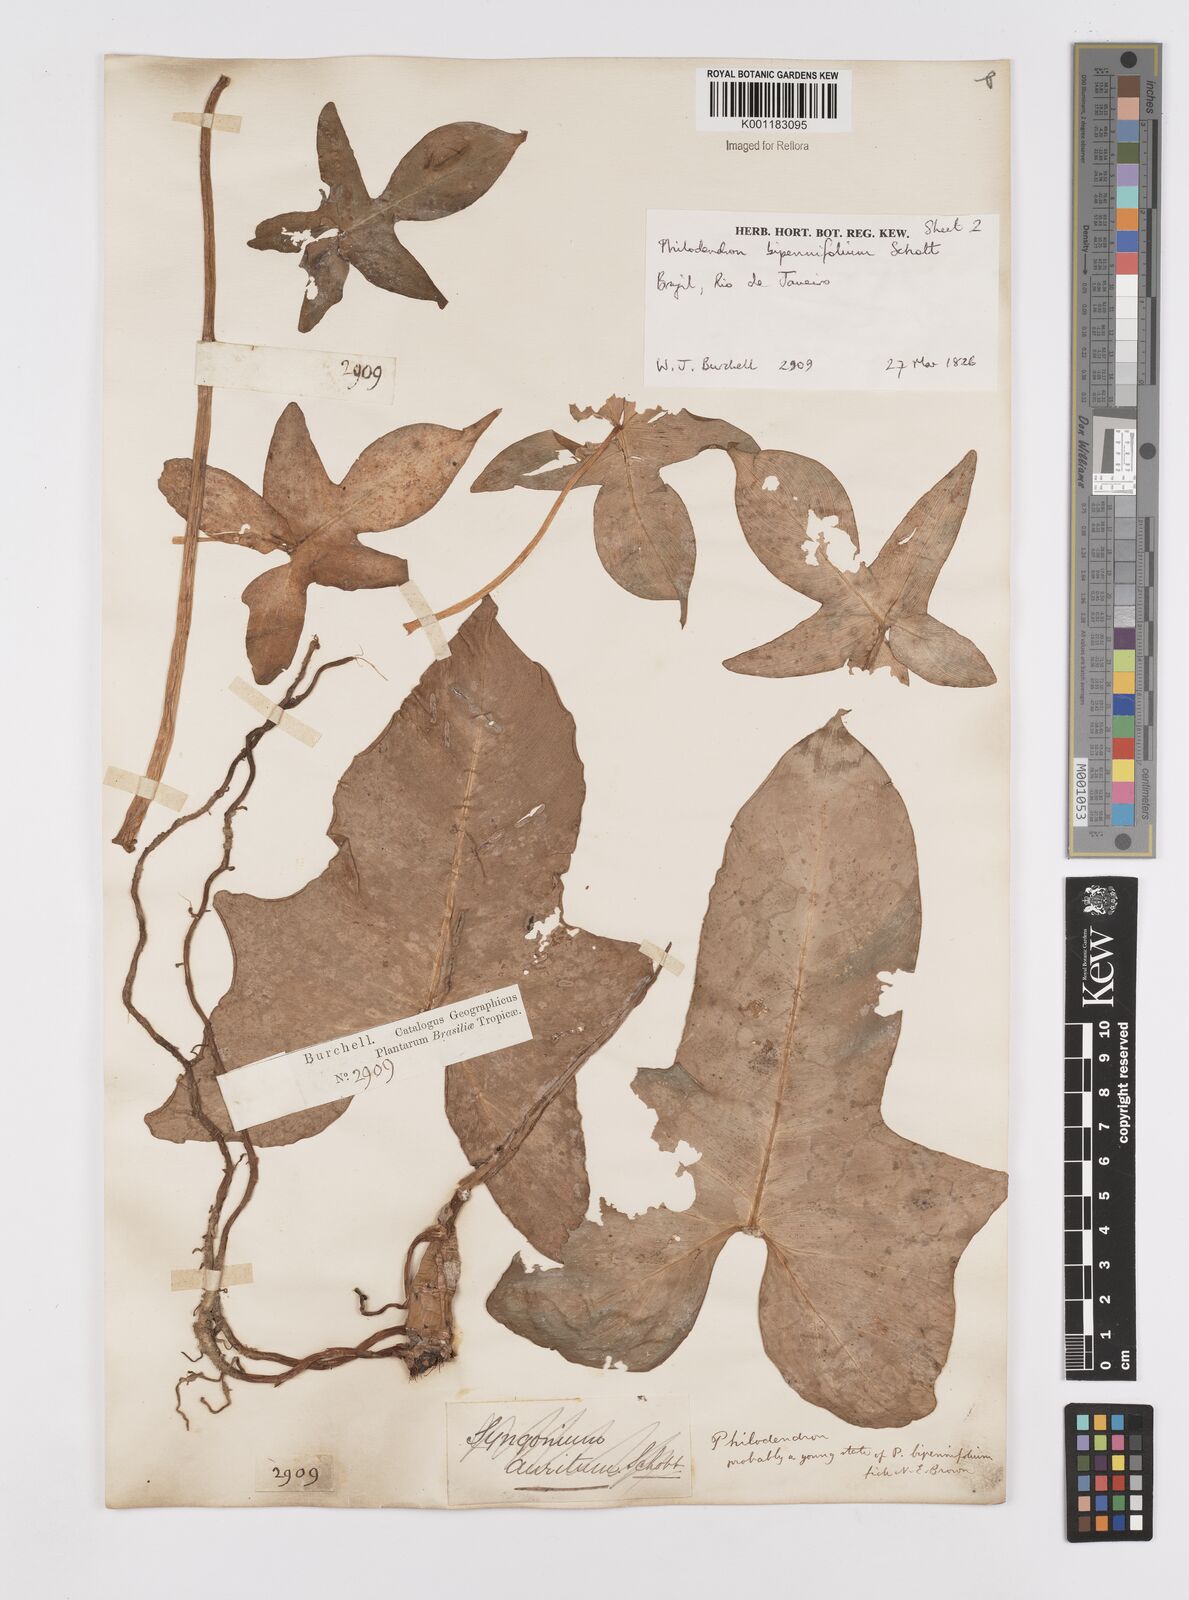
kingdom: Plantae
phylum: Tracheophyta
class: Liliopsida
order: Alismatales
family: Araceae
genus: Philodendron
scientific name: Philodendron bipennifolium
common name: Fiddle-leaf philodendron
